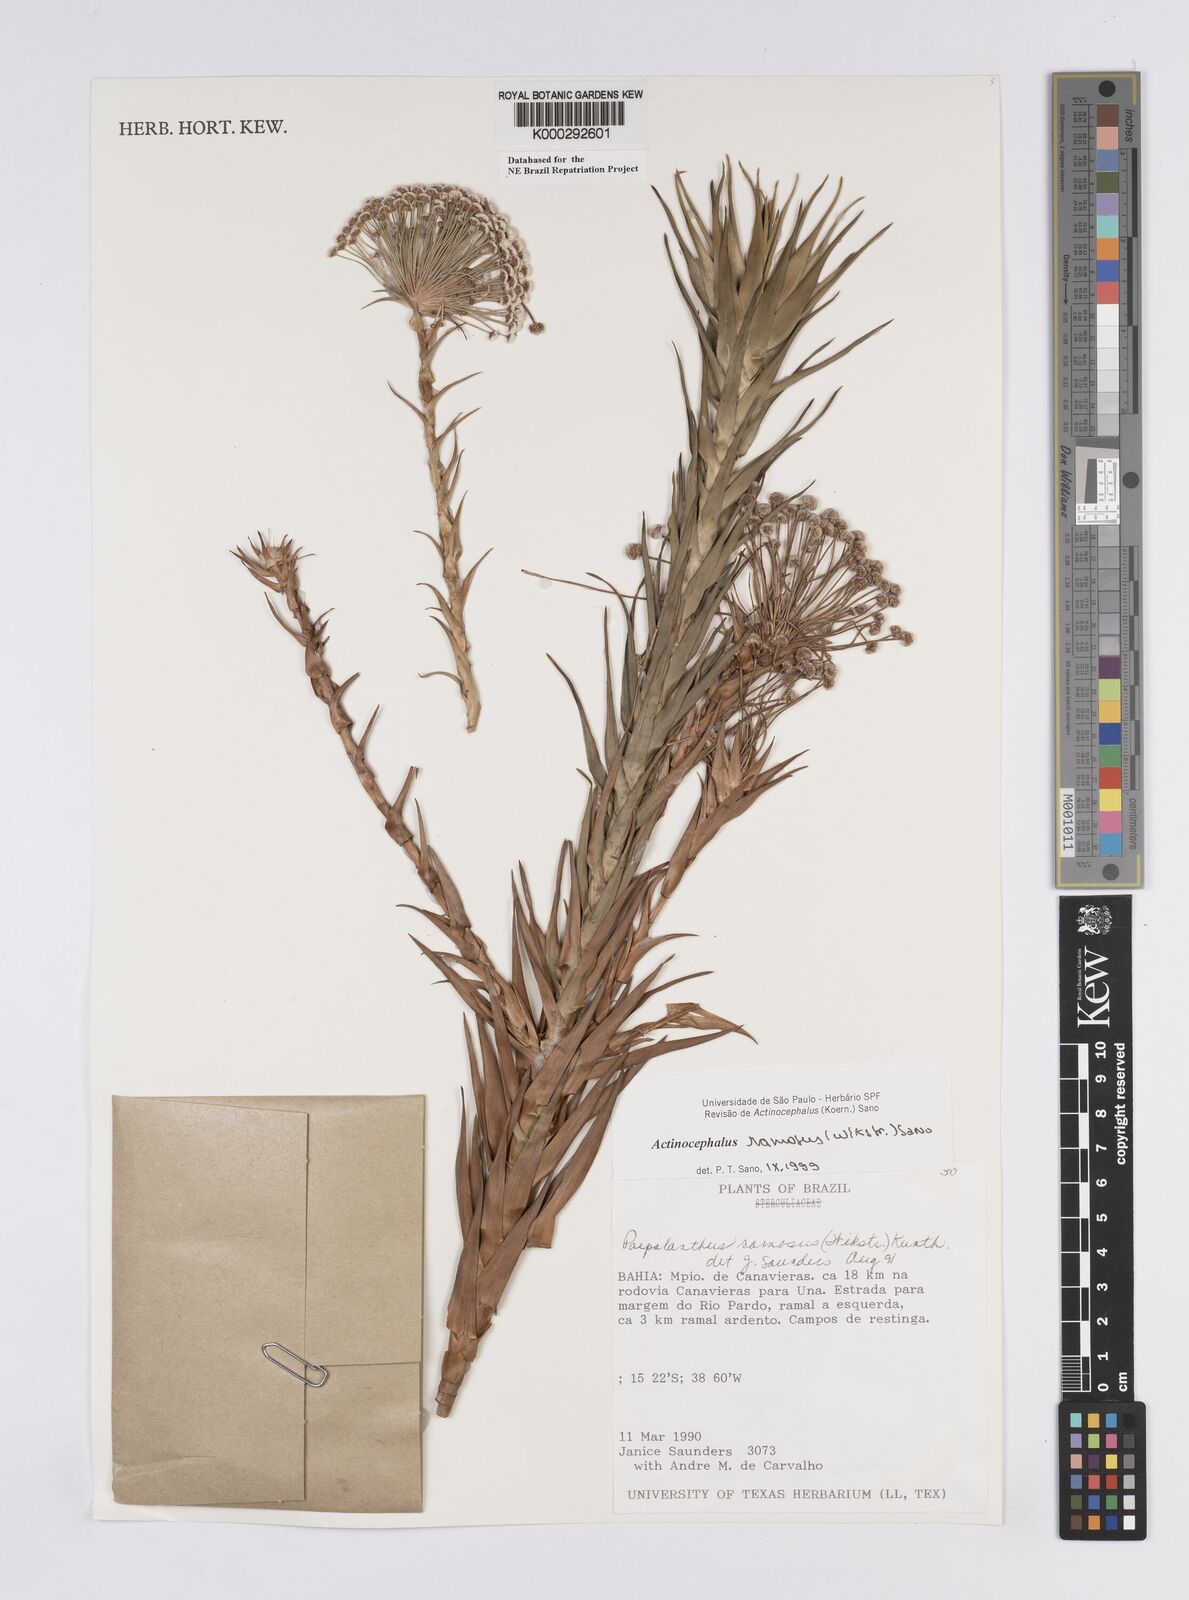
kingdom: Plantae
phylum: Tracheophyta
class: Liliopsida
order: Poales
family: Eriocaulaceae
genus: Paepalanthus
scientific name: Paepalanthus ramosus
